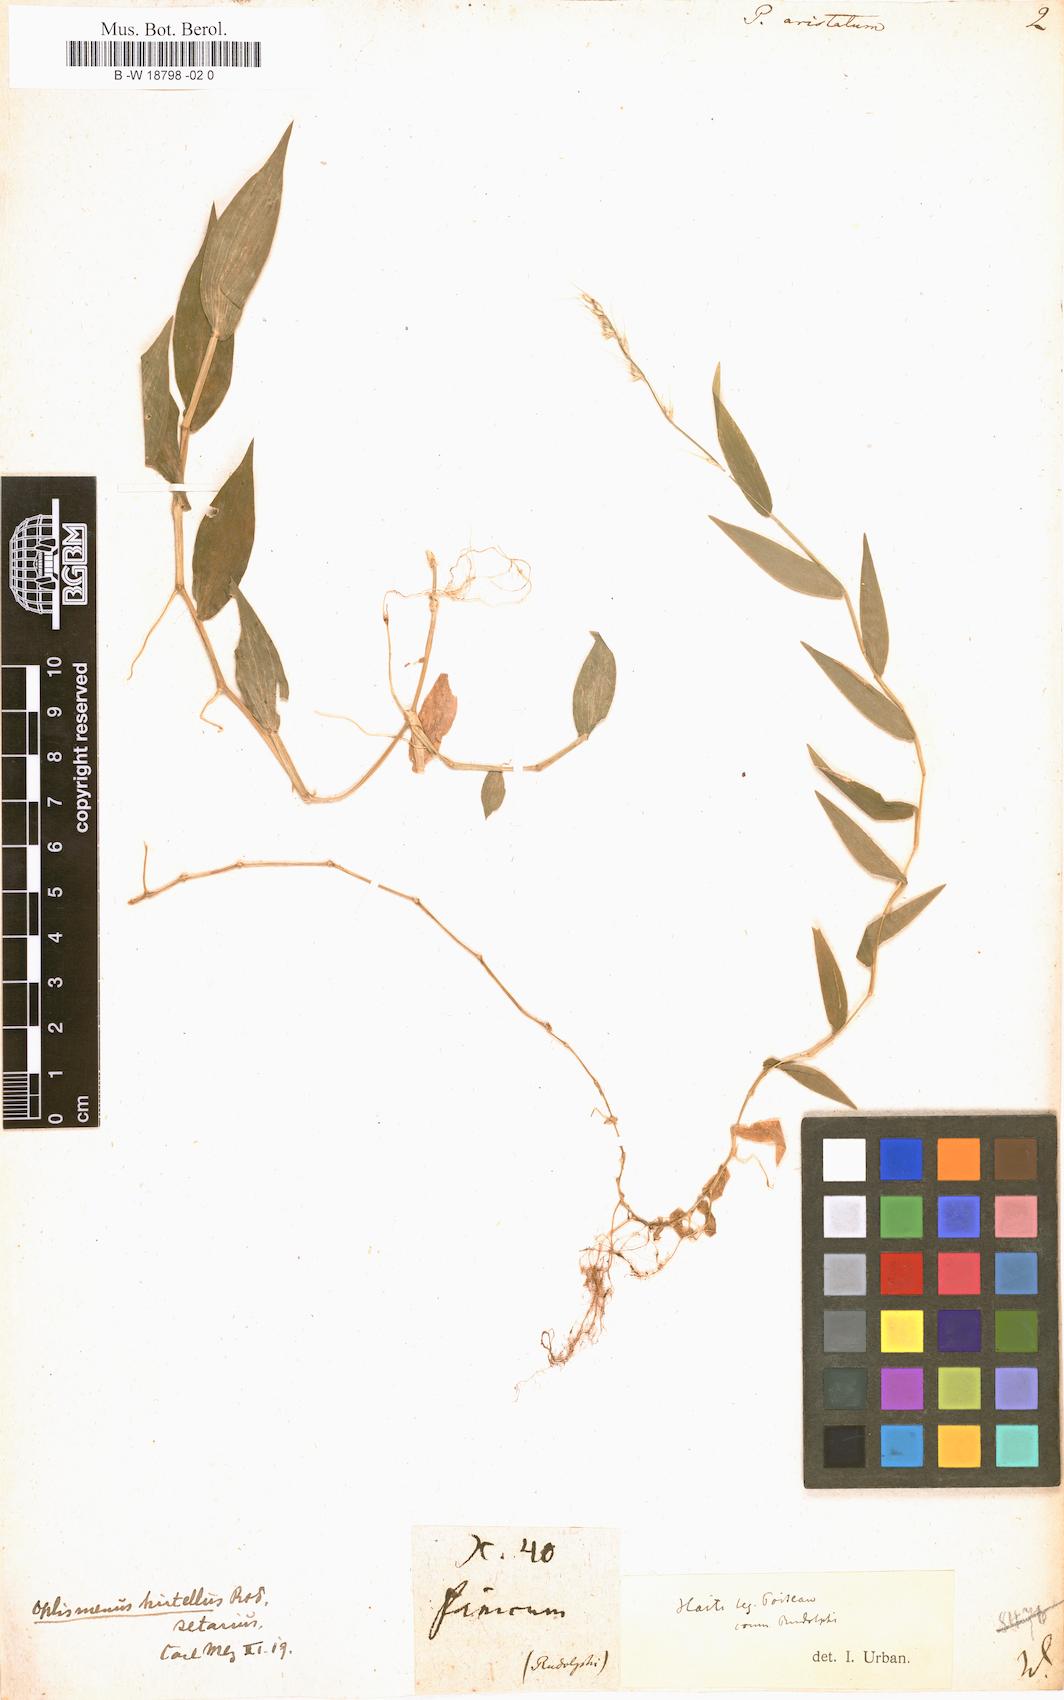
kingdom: Plantae
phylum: Tracheophyta
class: Liliopsida
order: Poales
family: Poaceae
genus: Oplismenus
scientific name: Oplismenus compositus
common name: Running mountain grass
